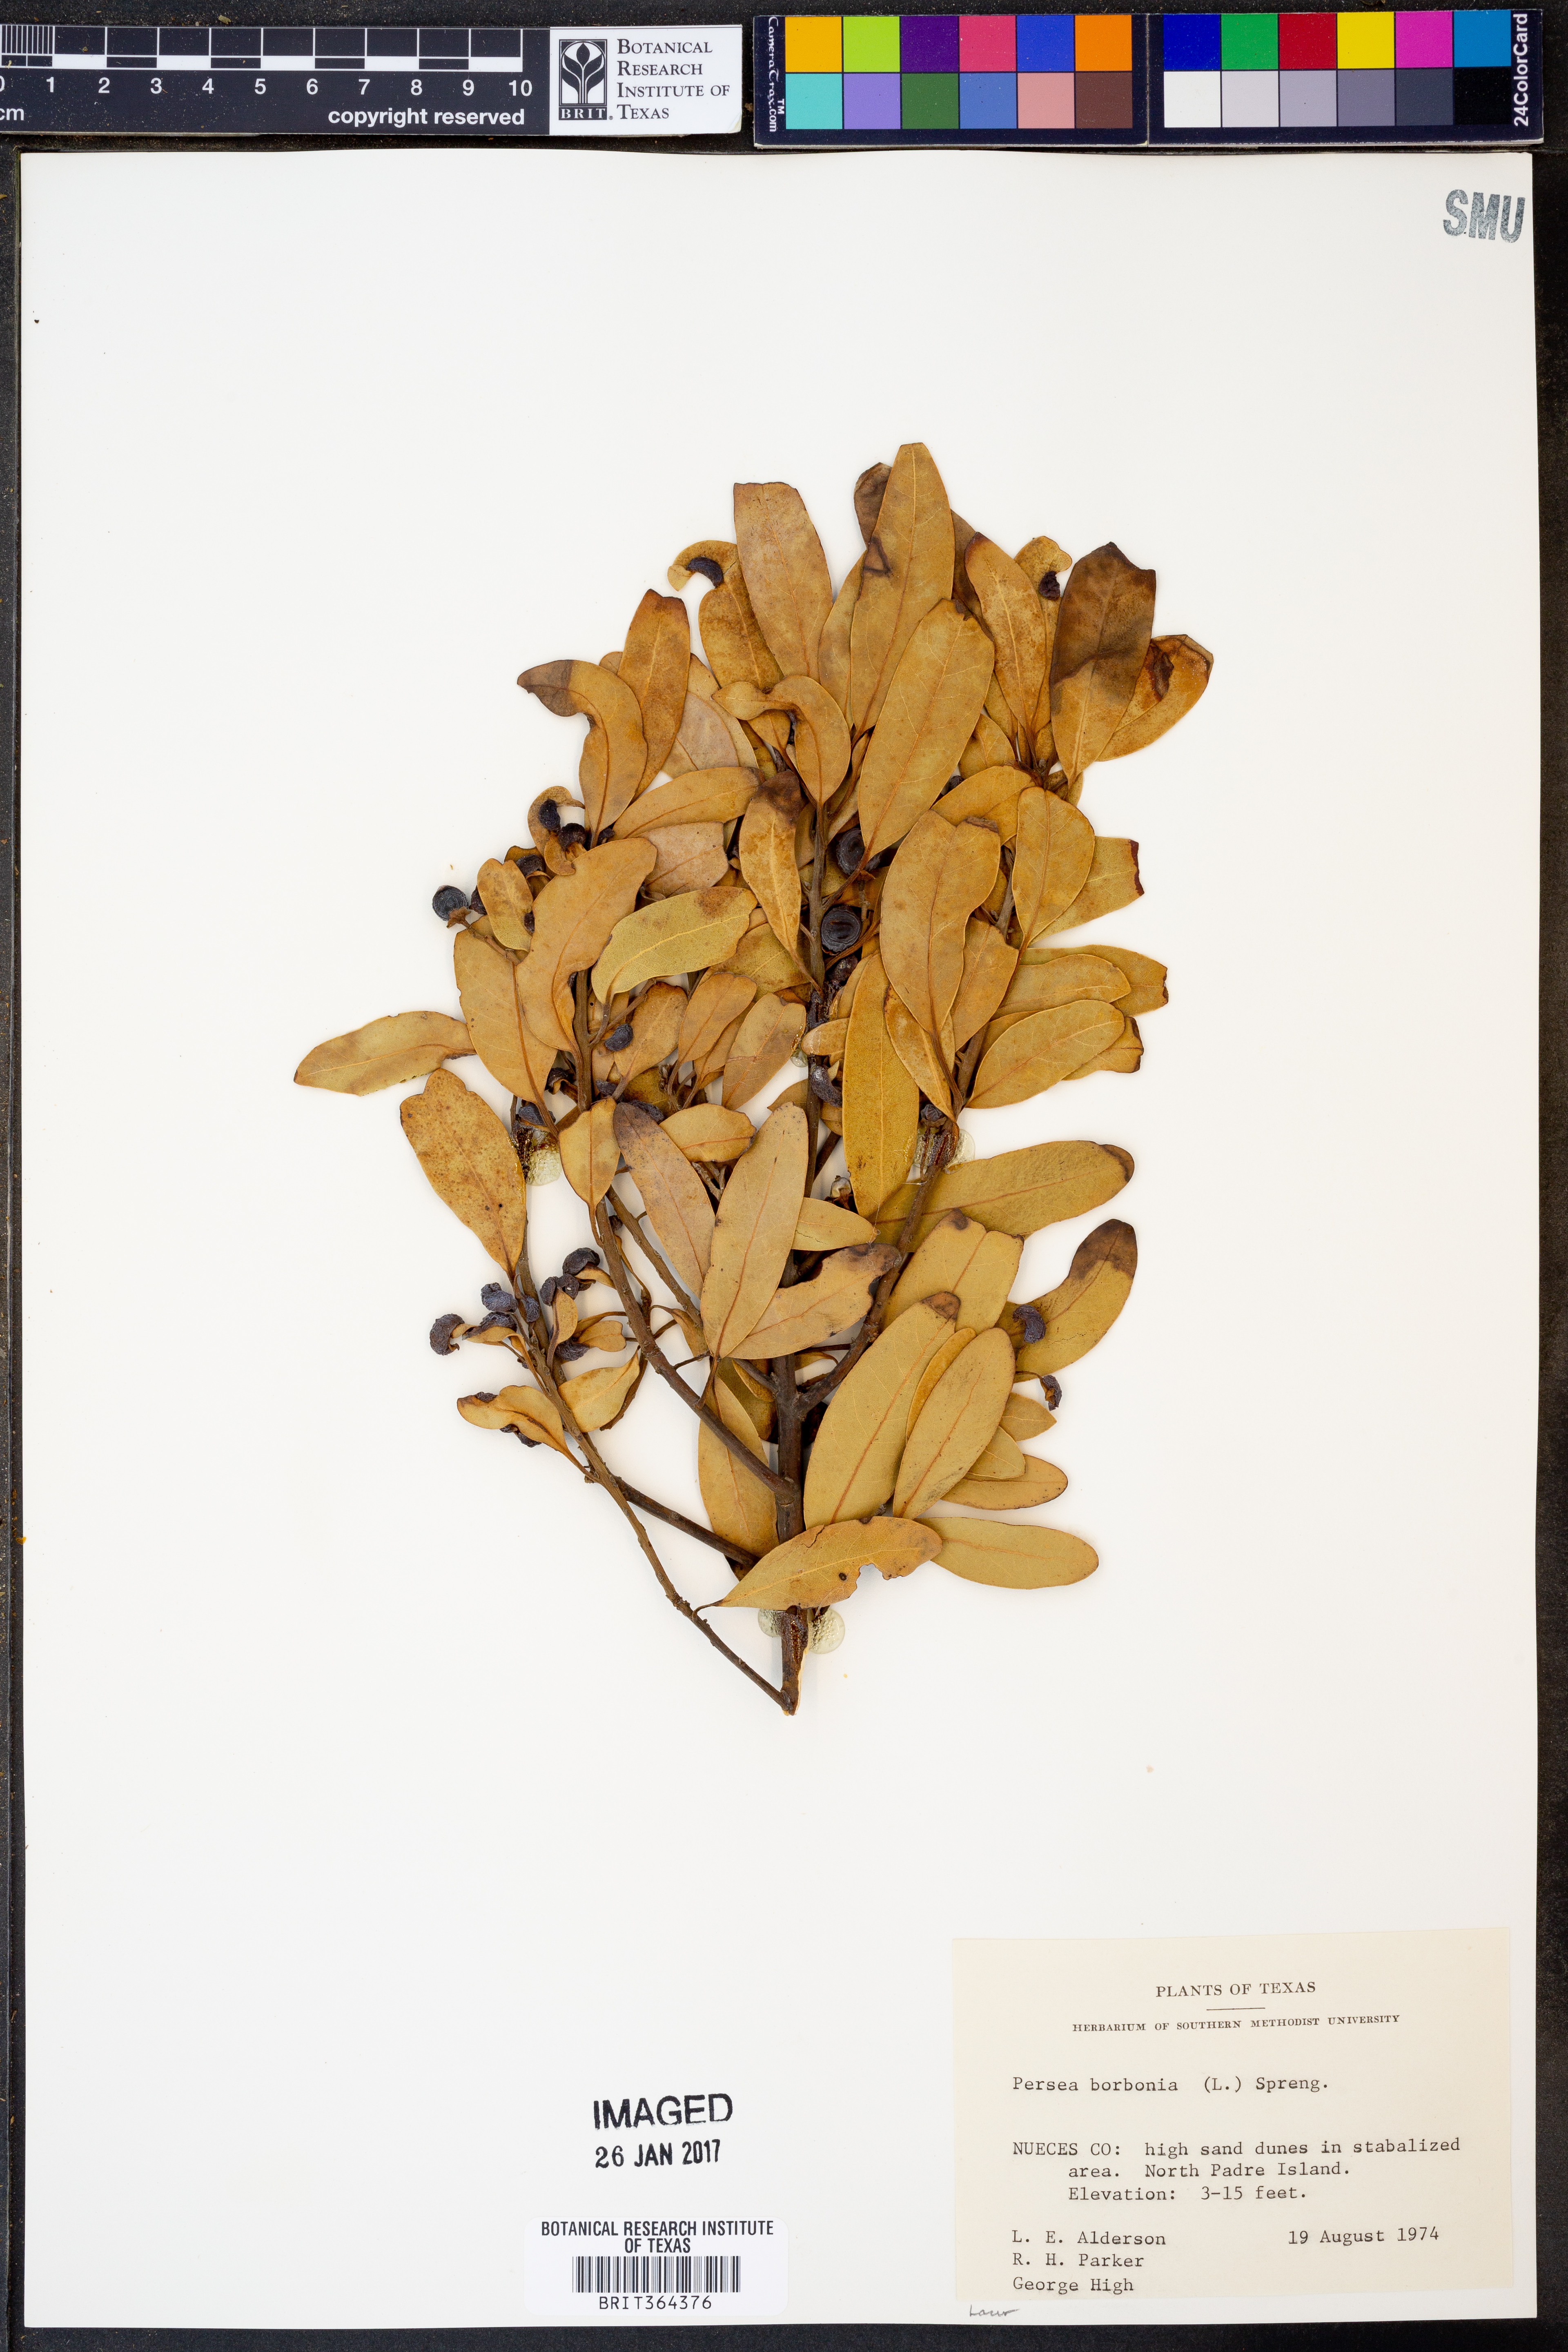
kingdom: Plantae
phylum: Tracheophyta
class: Magnoliopsida
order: Laurales
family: Lauraceae
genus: Persea
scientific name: Persea borbonia
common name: Redbay
